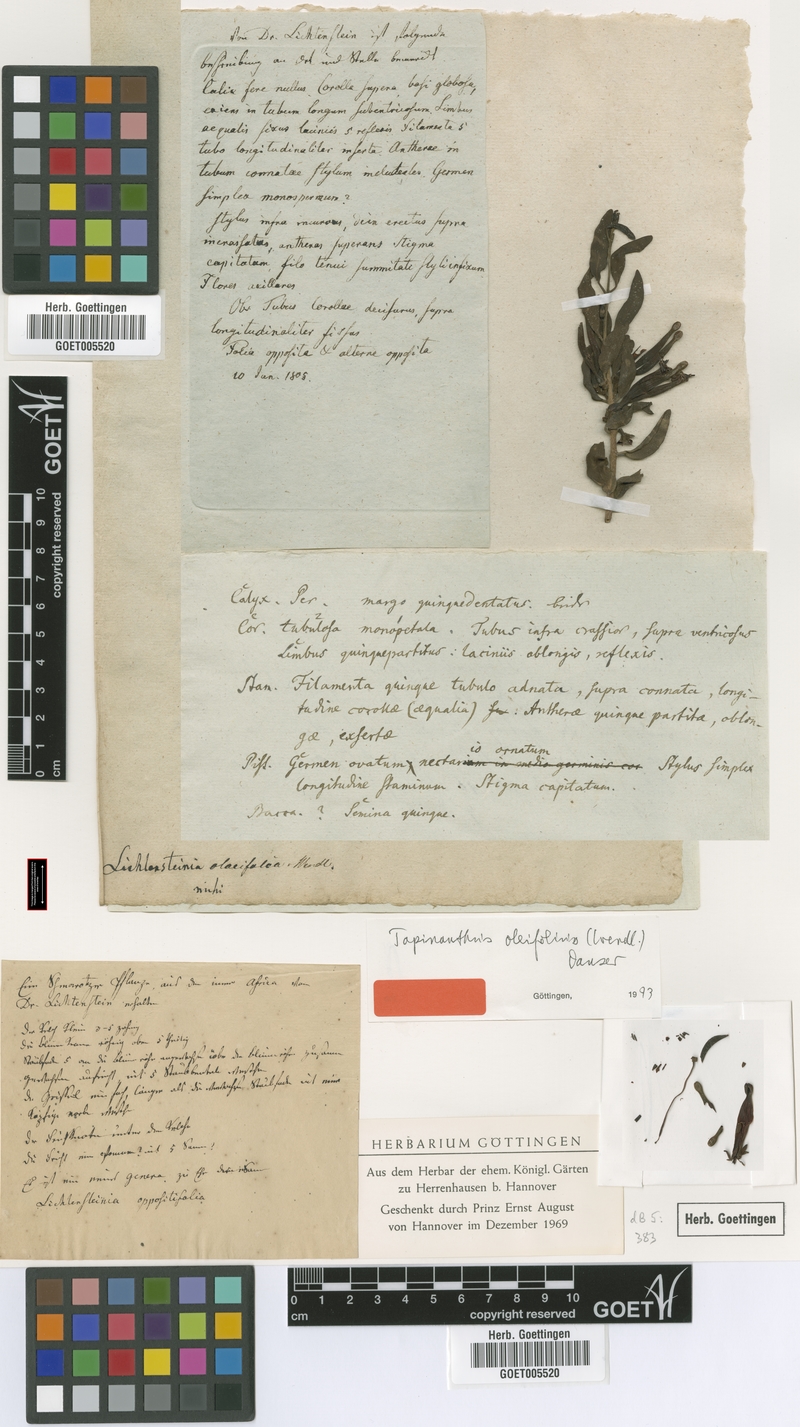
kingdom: Plantae
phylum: Tracheophyta
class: Magnoliopsida
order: Santalales
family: Loranthaceae
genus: Tapinanthus
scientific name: Tapinanthus oleifolius
